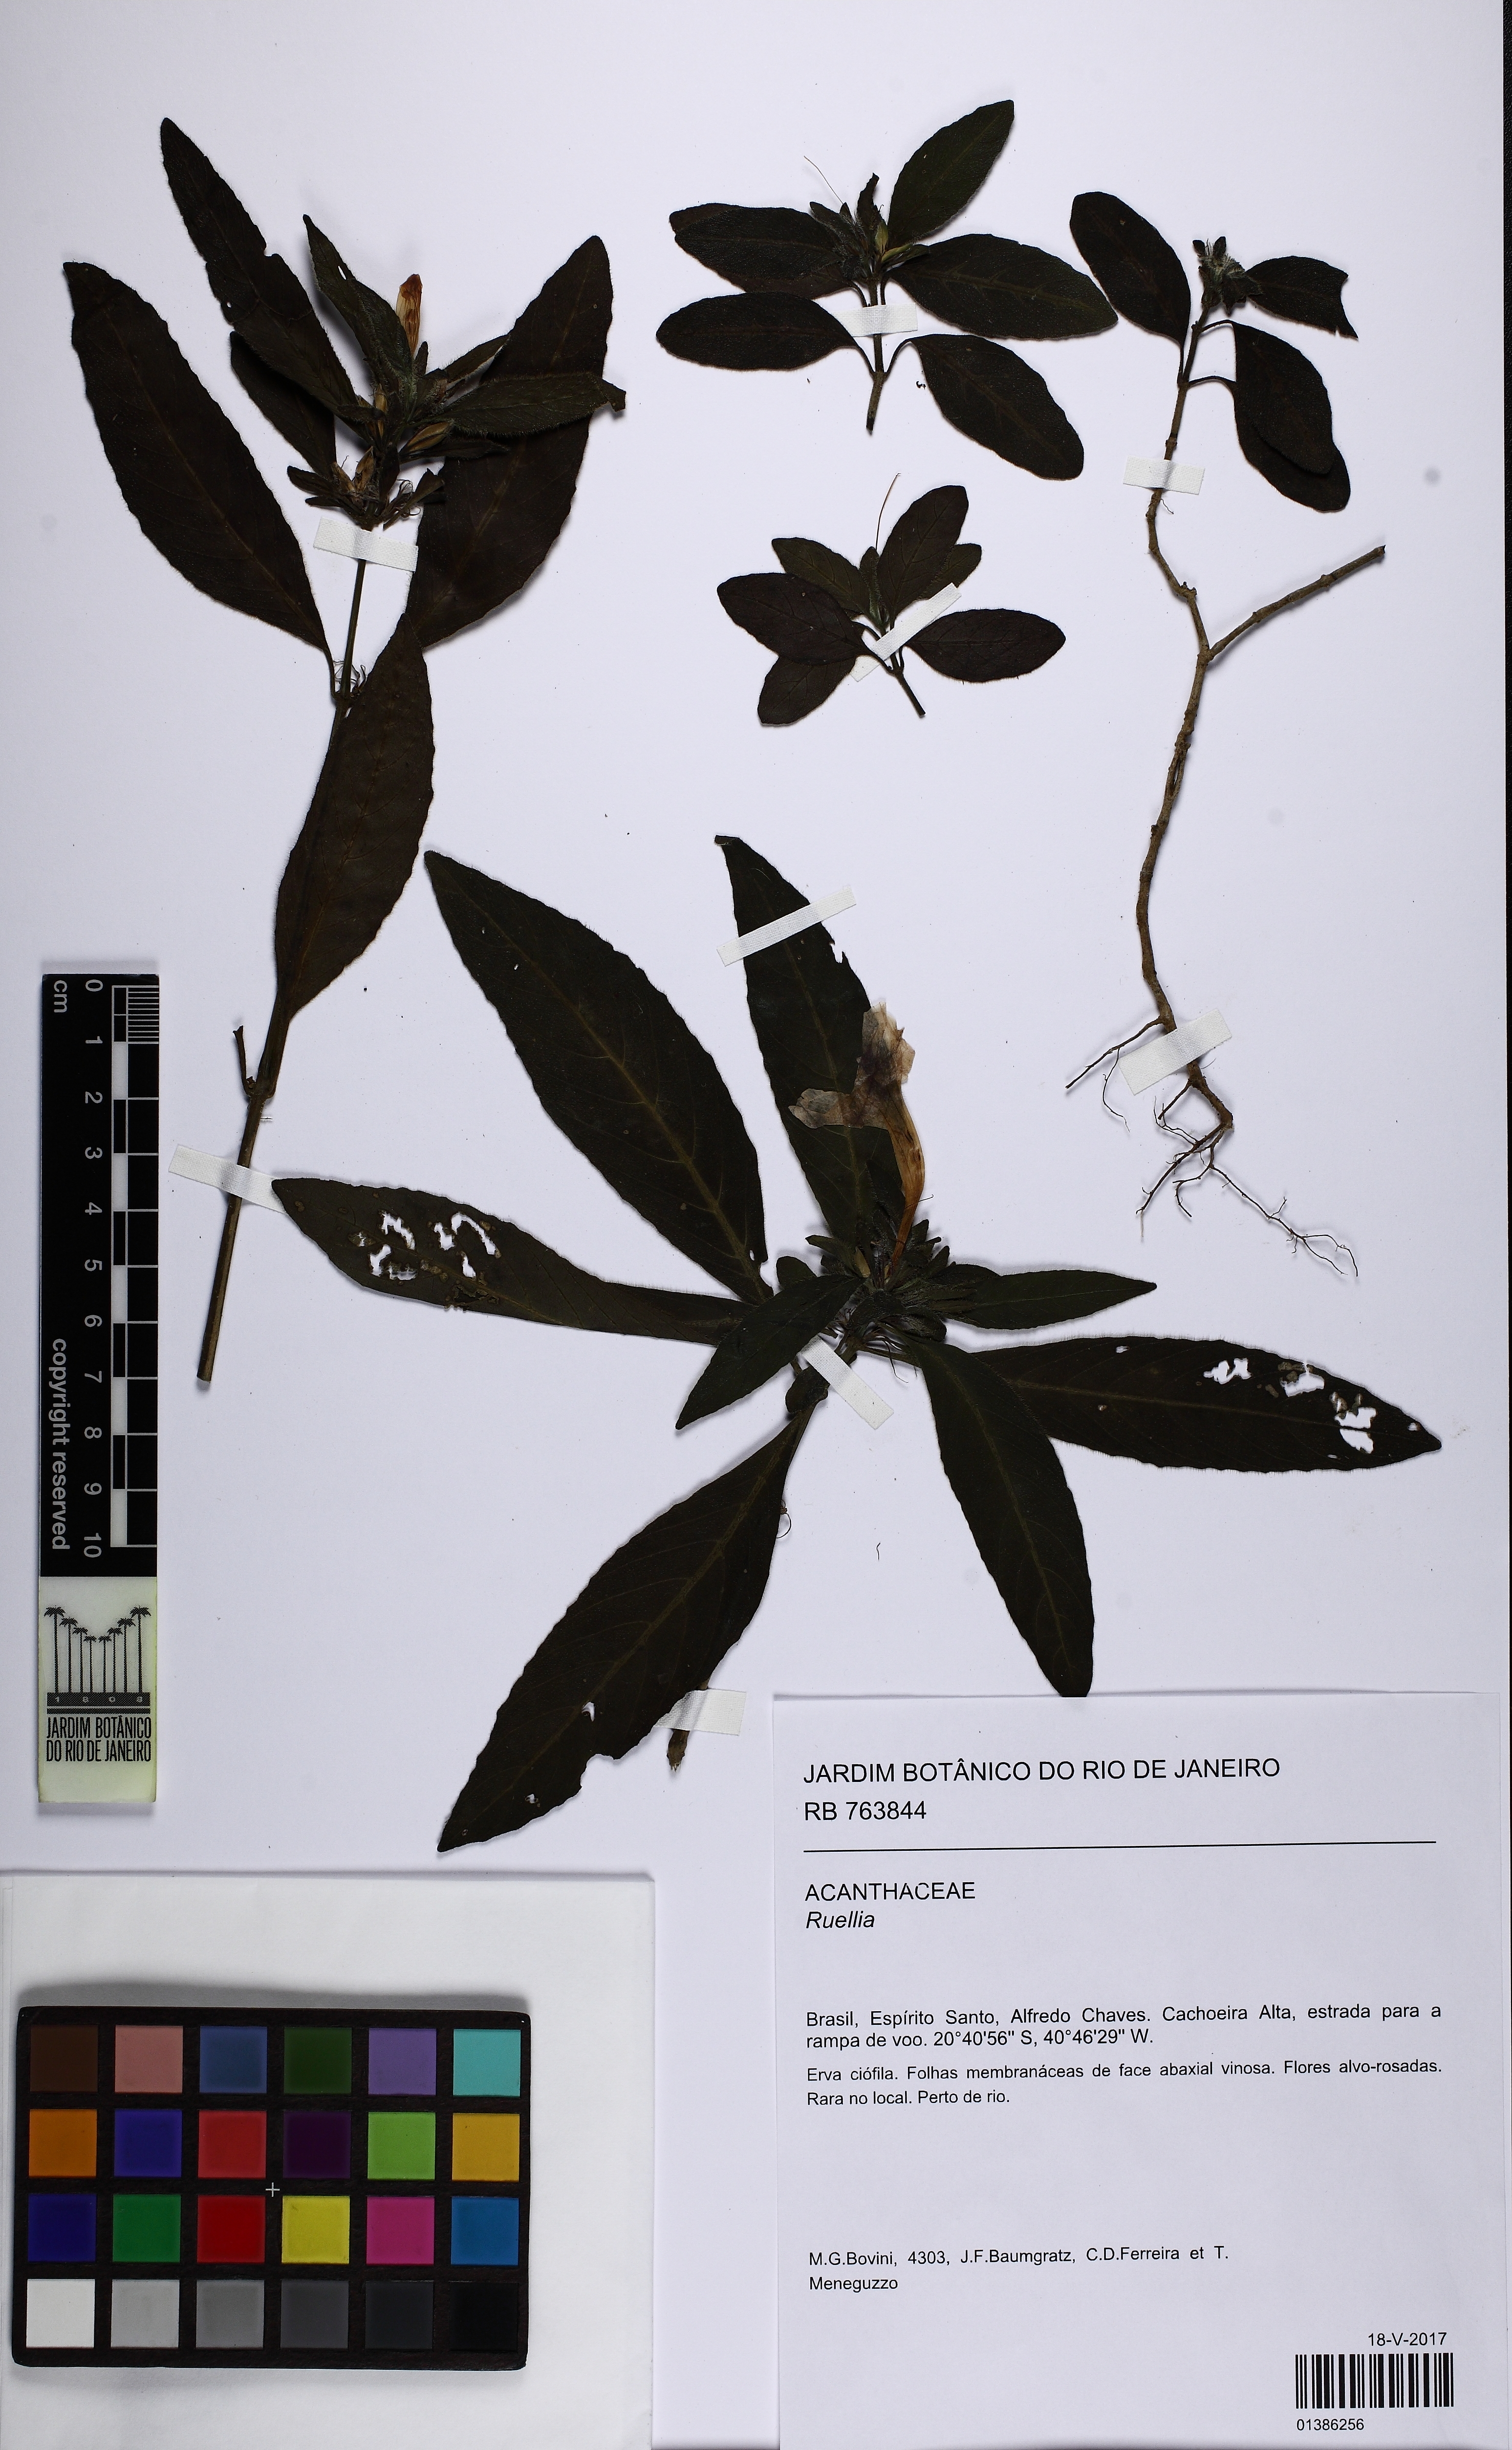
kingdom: Plantae
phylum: Tracheophyta
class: Magnoliopsida
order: Lamiales
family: Acanthaceae
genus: Ruellia
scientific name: Ruellia
